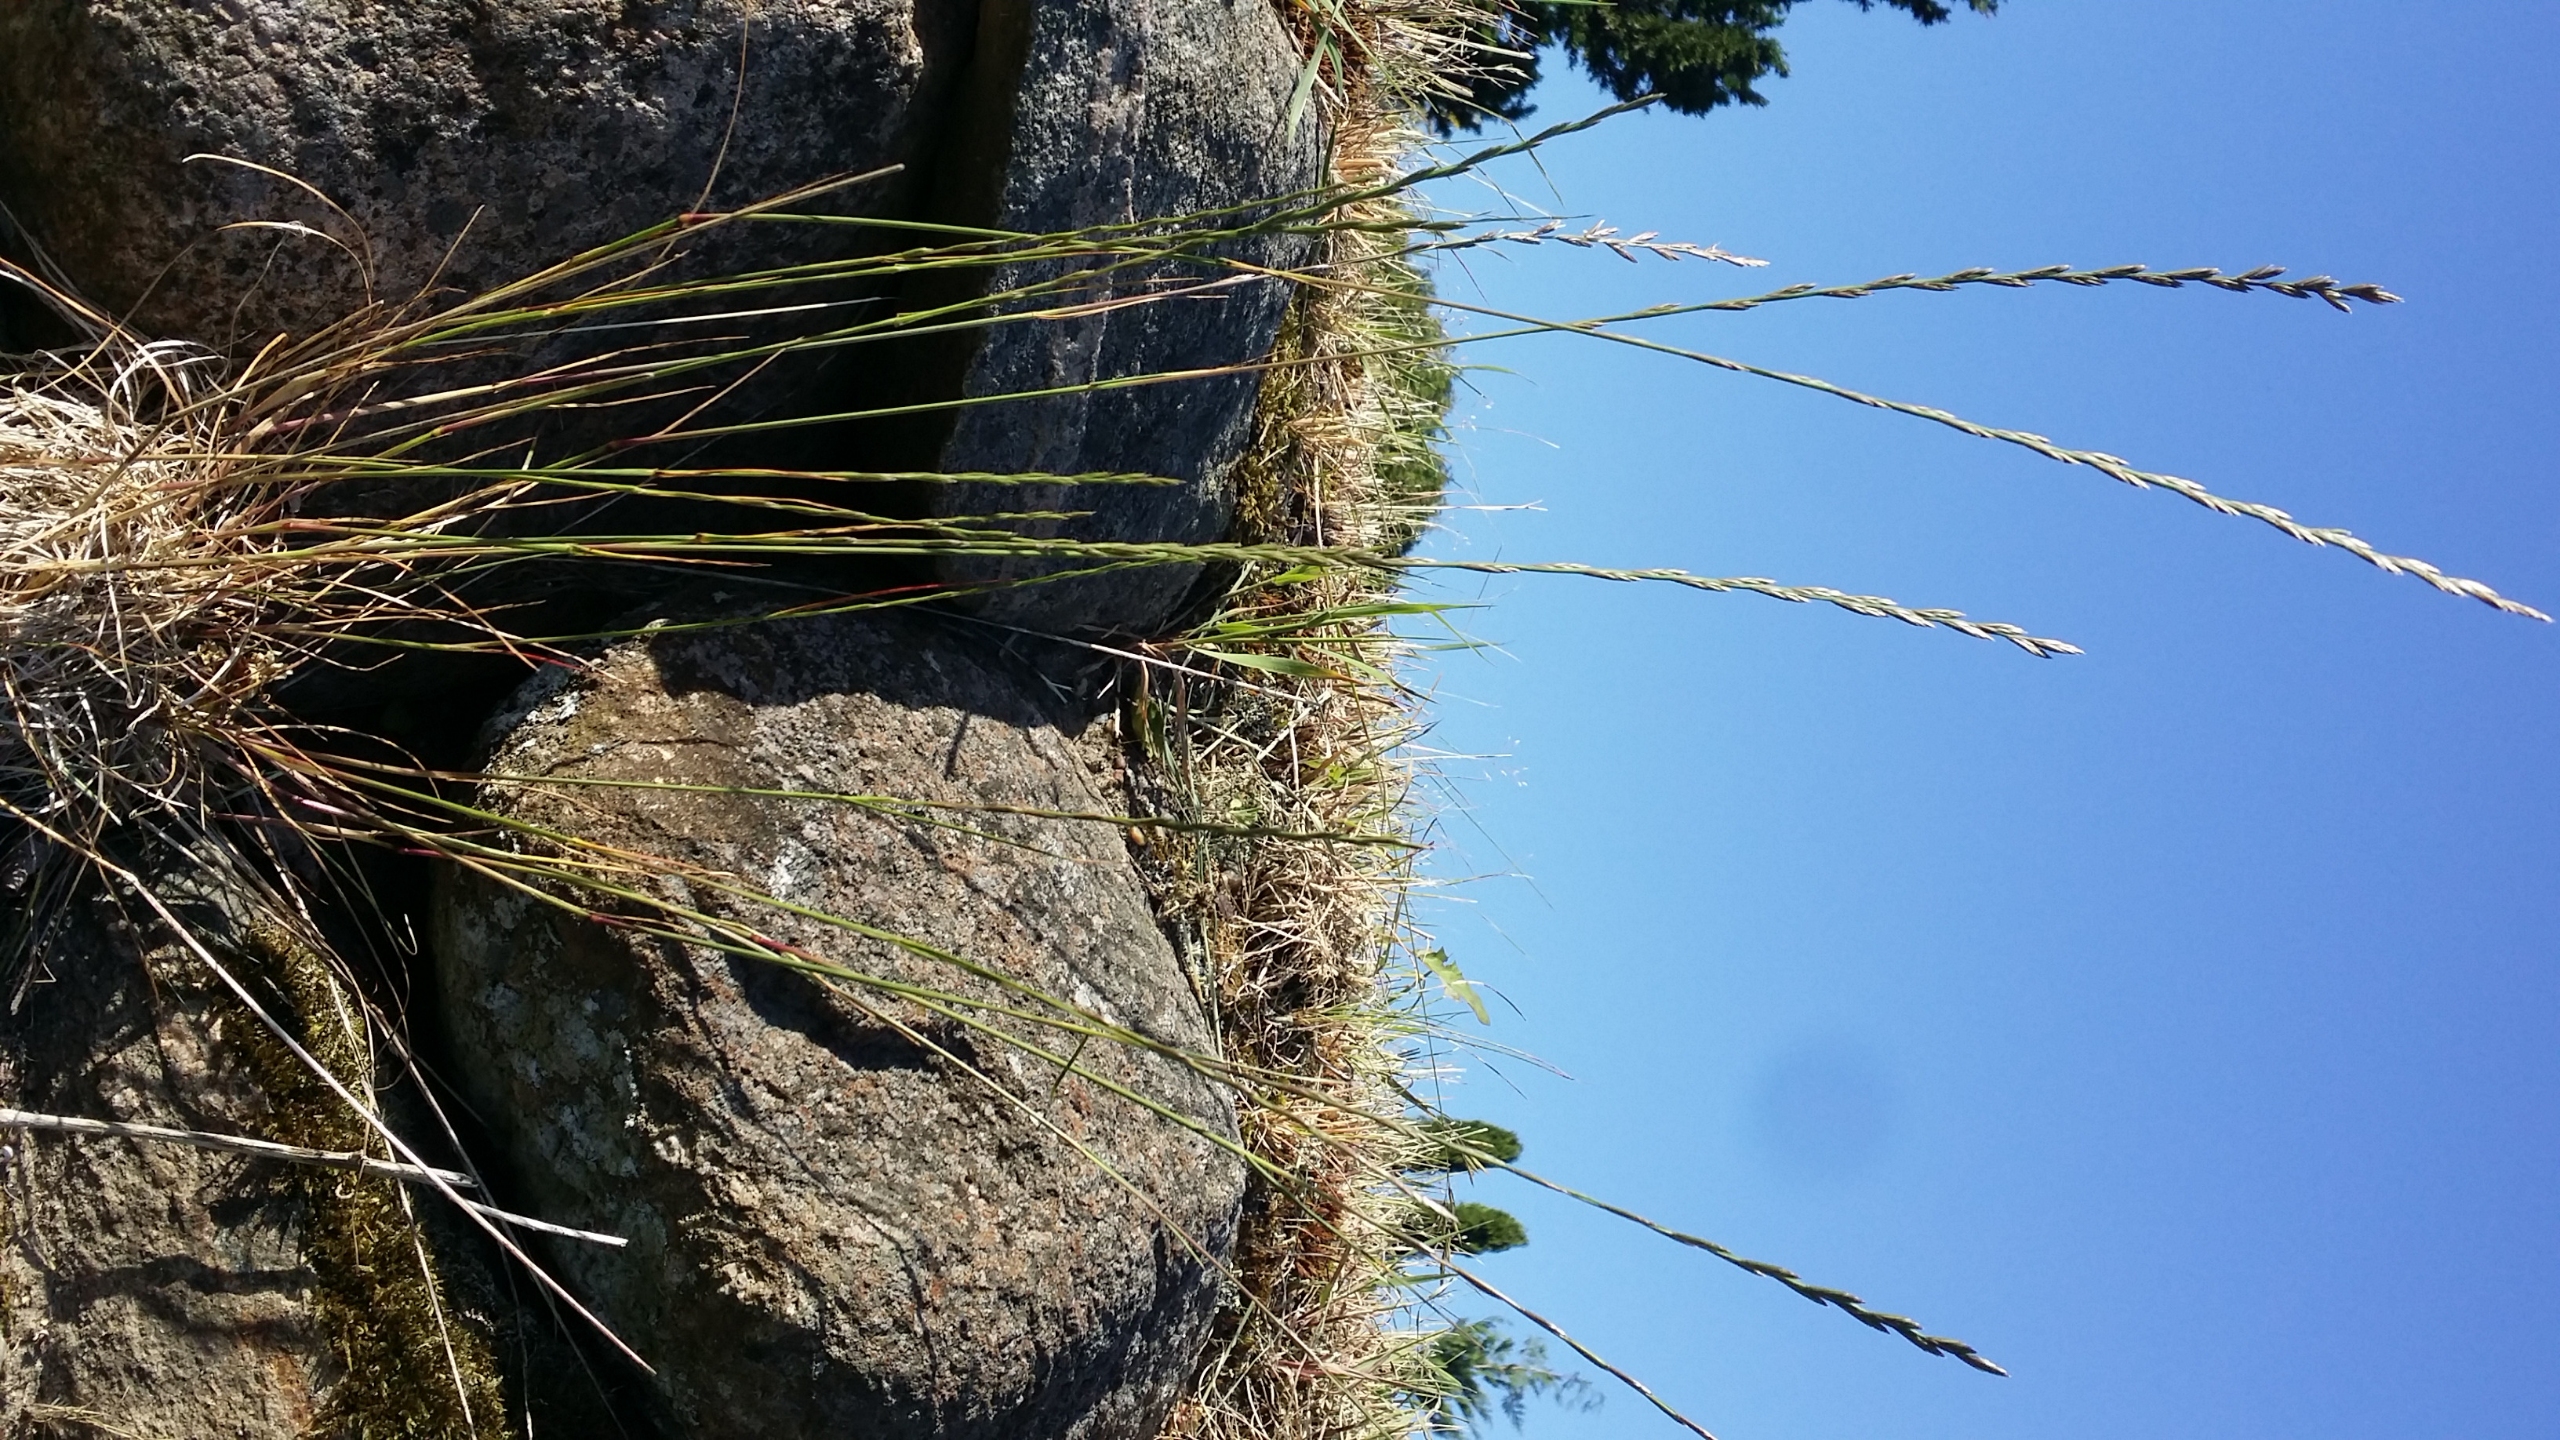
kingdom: Plantae
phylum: Tracheophyta
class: Liliopsida
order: Poales
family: Poaceae
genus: Lolium
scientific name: Lolium perenne
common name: Almindelig rajgræs
